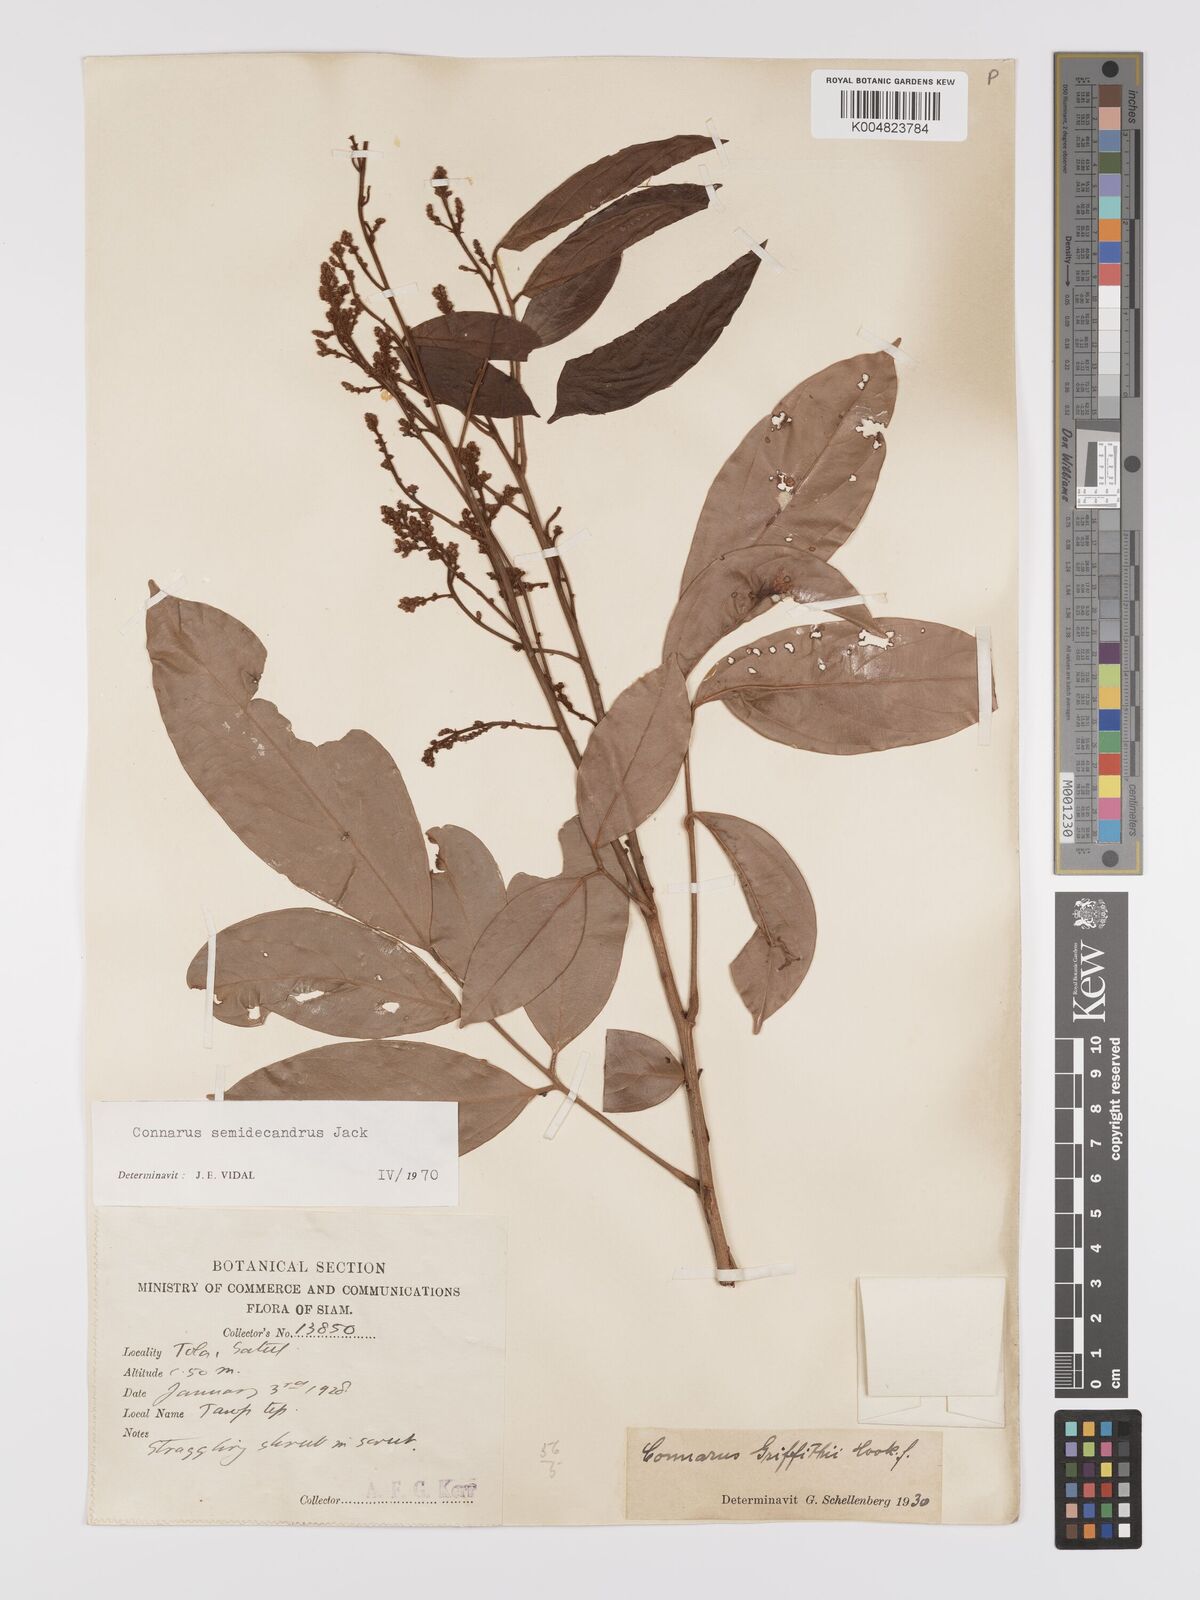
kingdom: Plantae
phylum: Tracheophyta
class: Magnoliopsida
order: Oxalidales
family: Connaraceae
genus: Connarus
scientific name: Connarus semidecandrus
